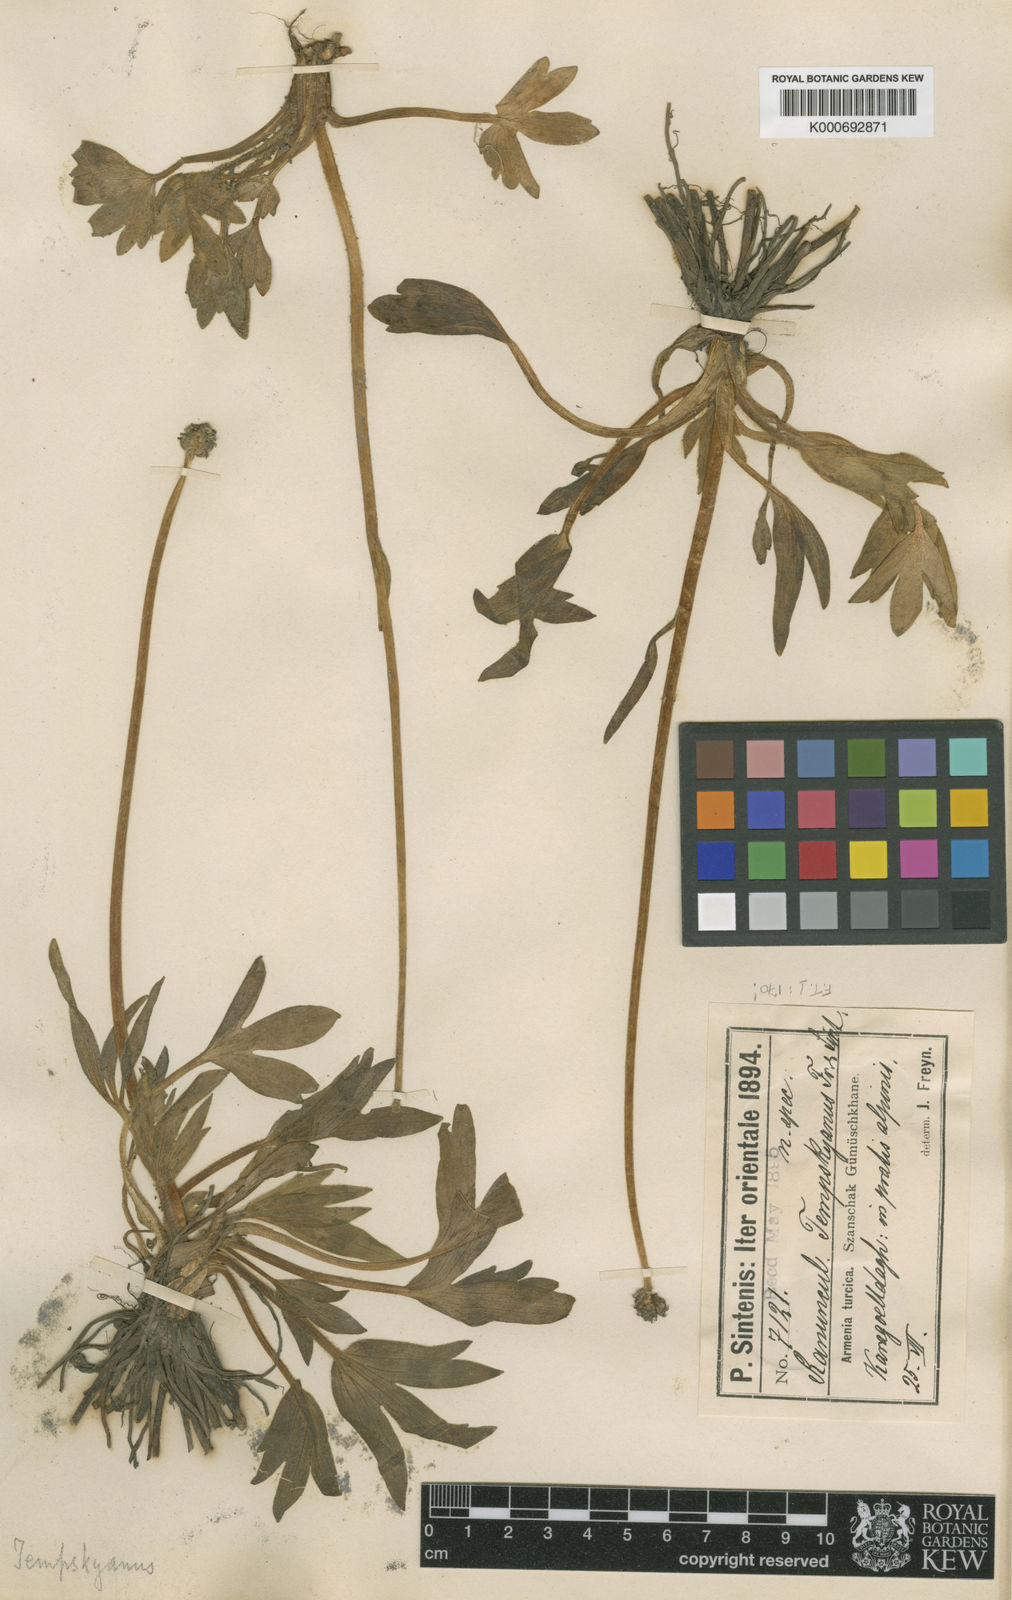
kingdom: Plantae
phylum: Tracheophyta
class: Magnoliopsida
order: Ranunculales
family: Ranunculaceae
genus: Ranunculus
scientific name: Ranunculus obesus
